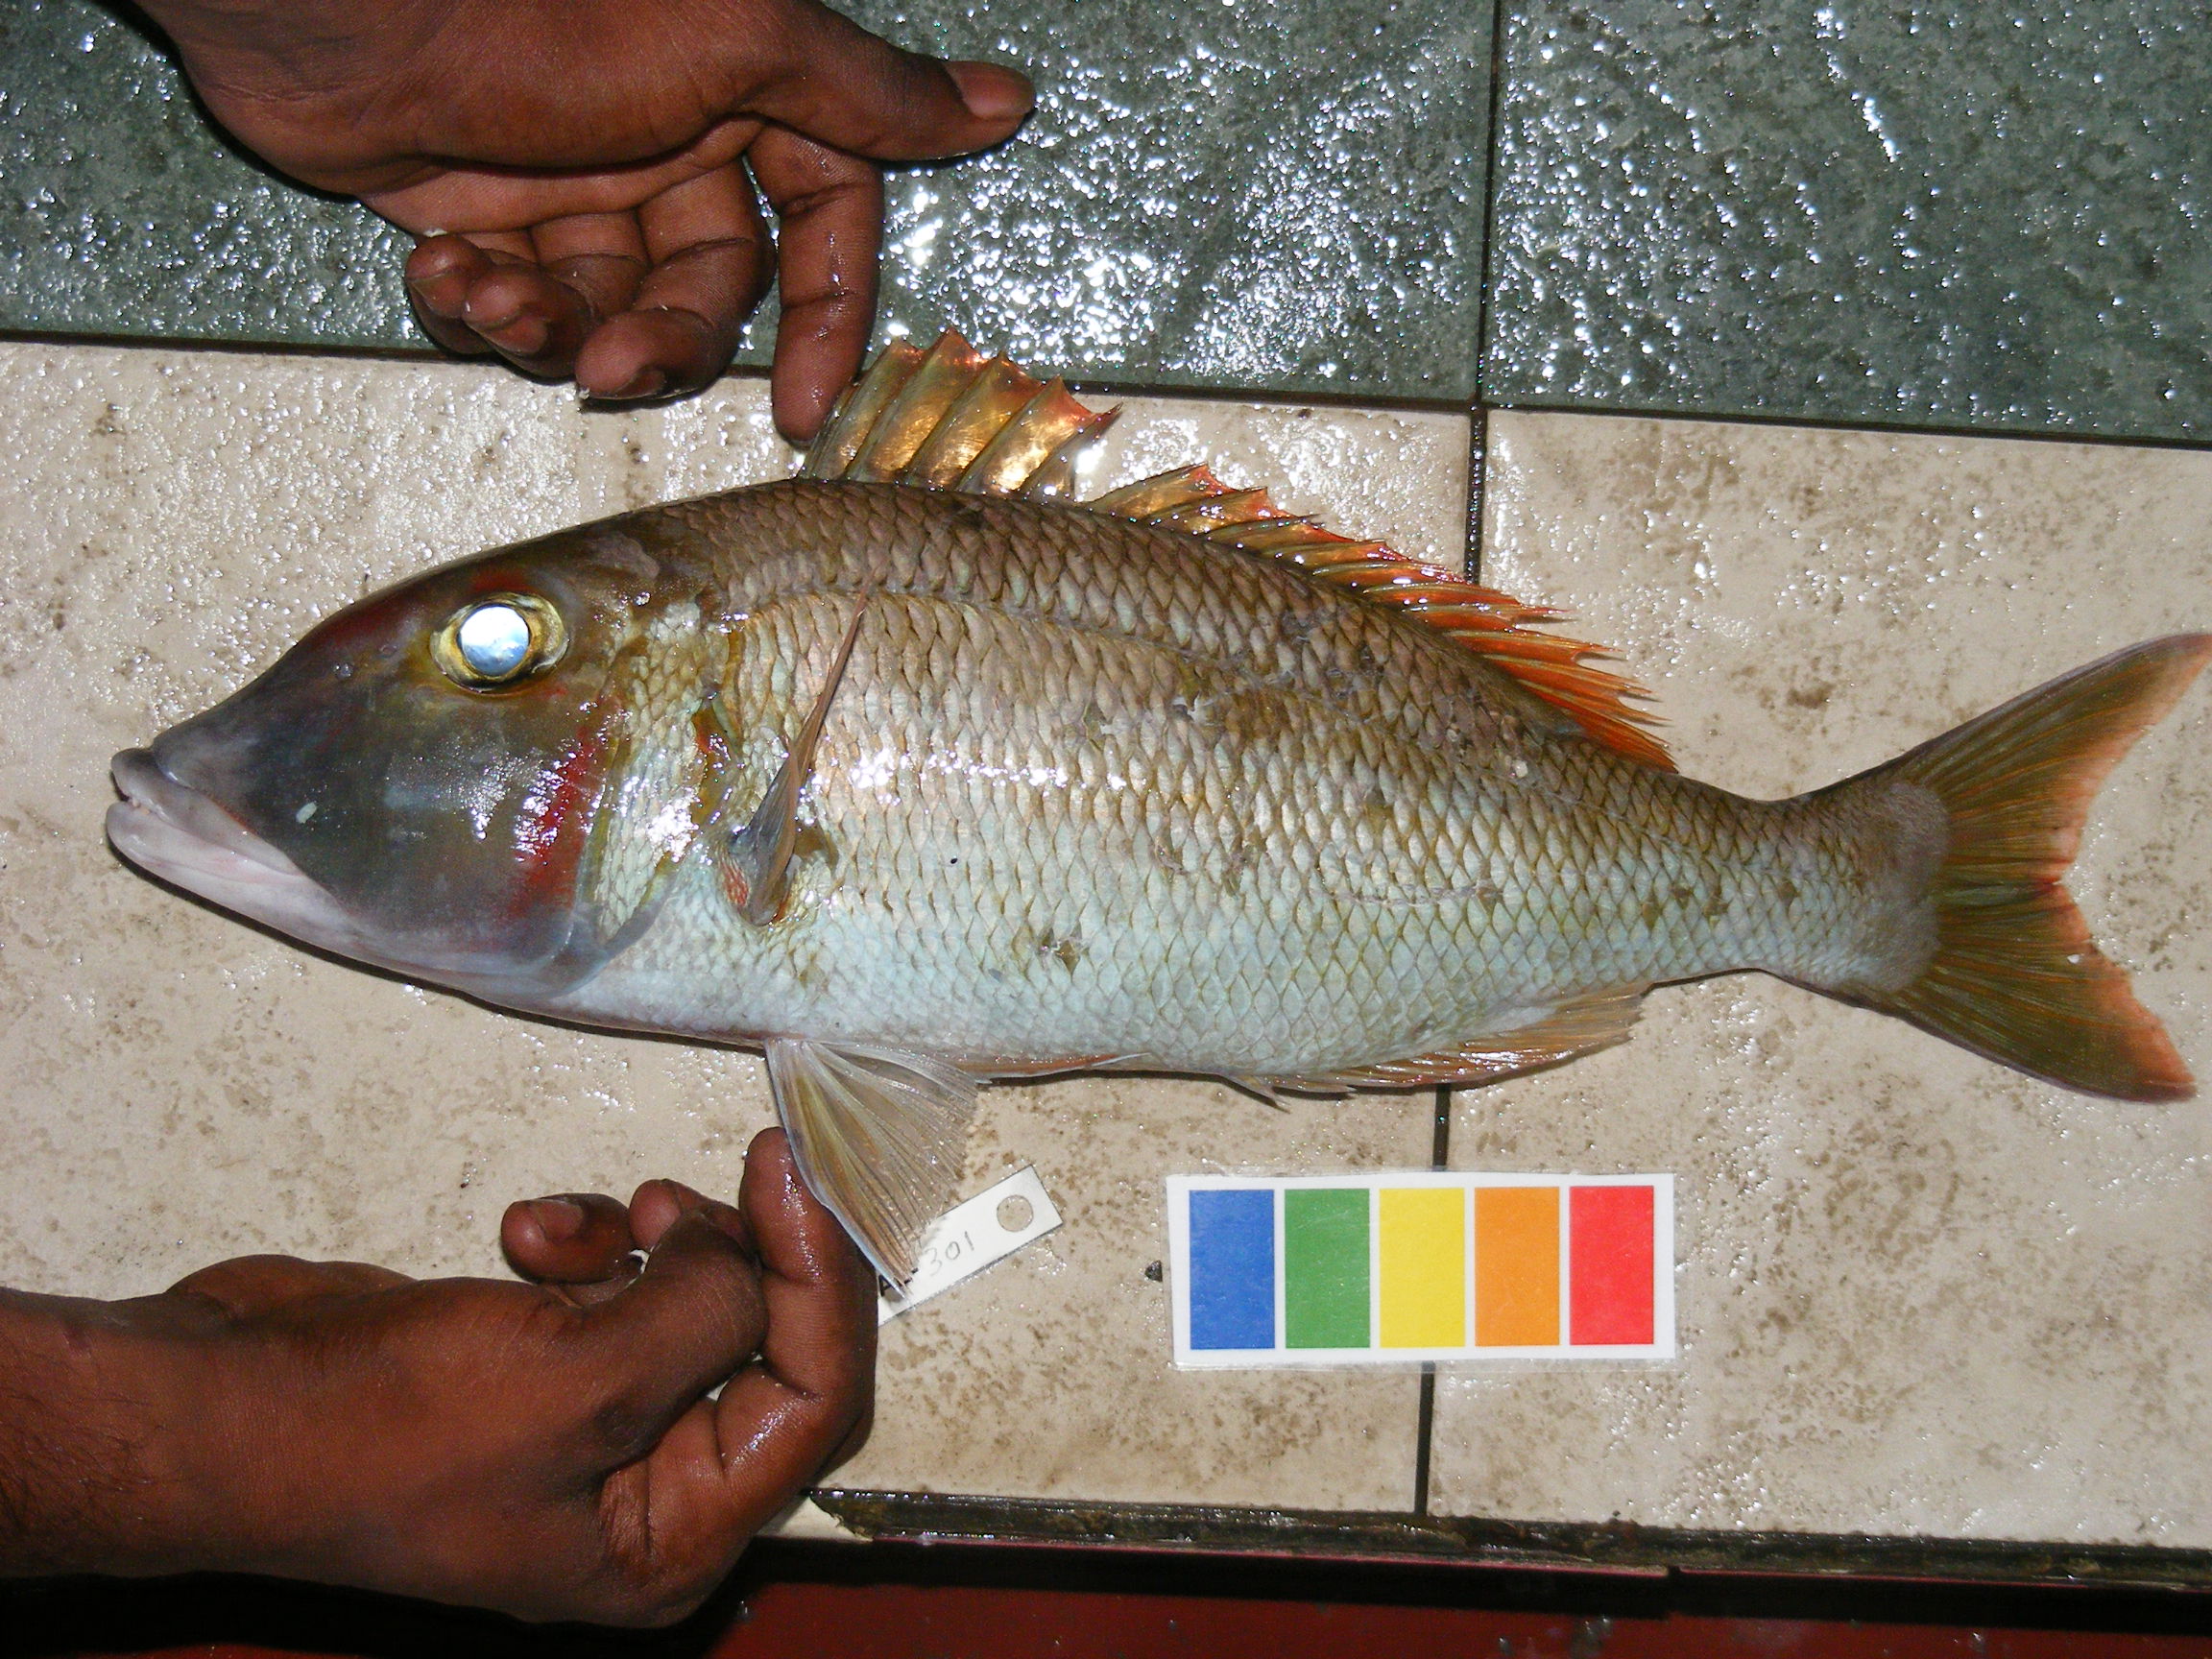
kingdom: Animalia
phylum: Chordata
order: Perciformes
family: Lethrinidae
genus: Lethrinus
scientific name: Lethrinus mahsena
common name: Sky emperor
